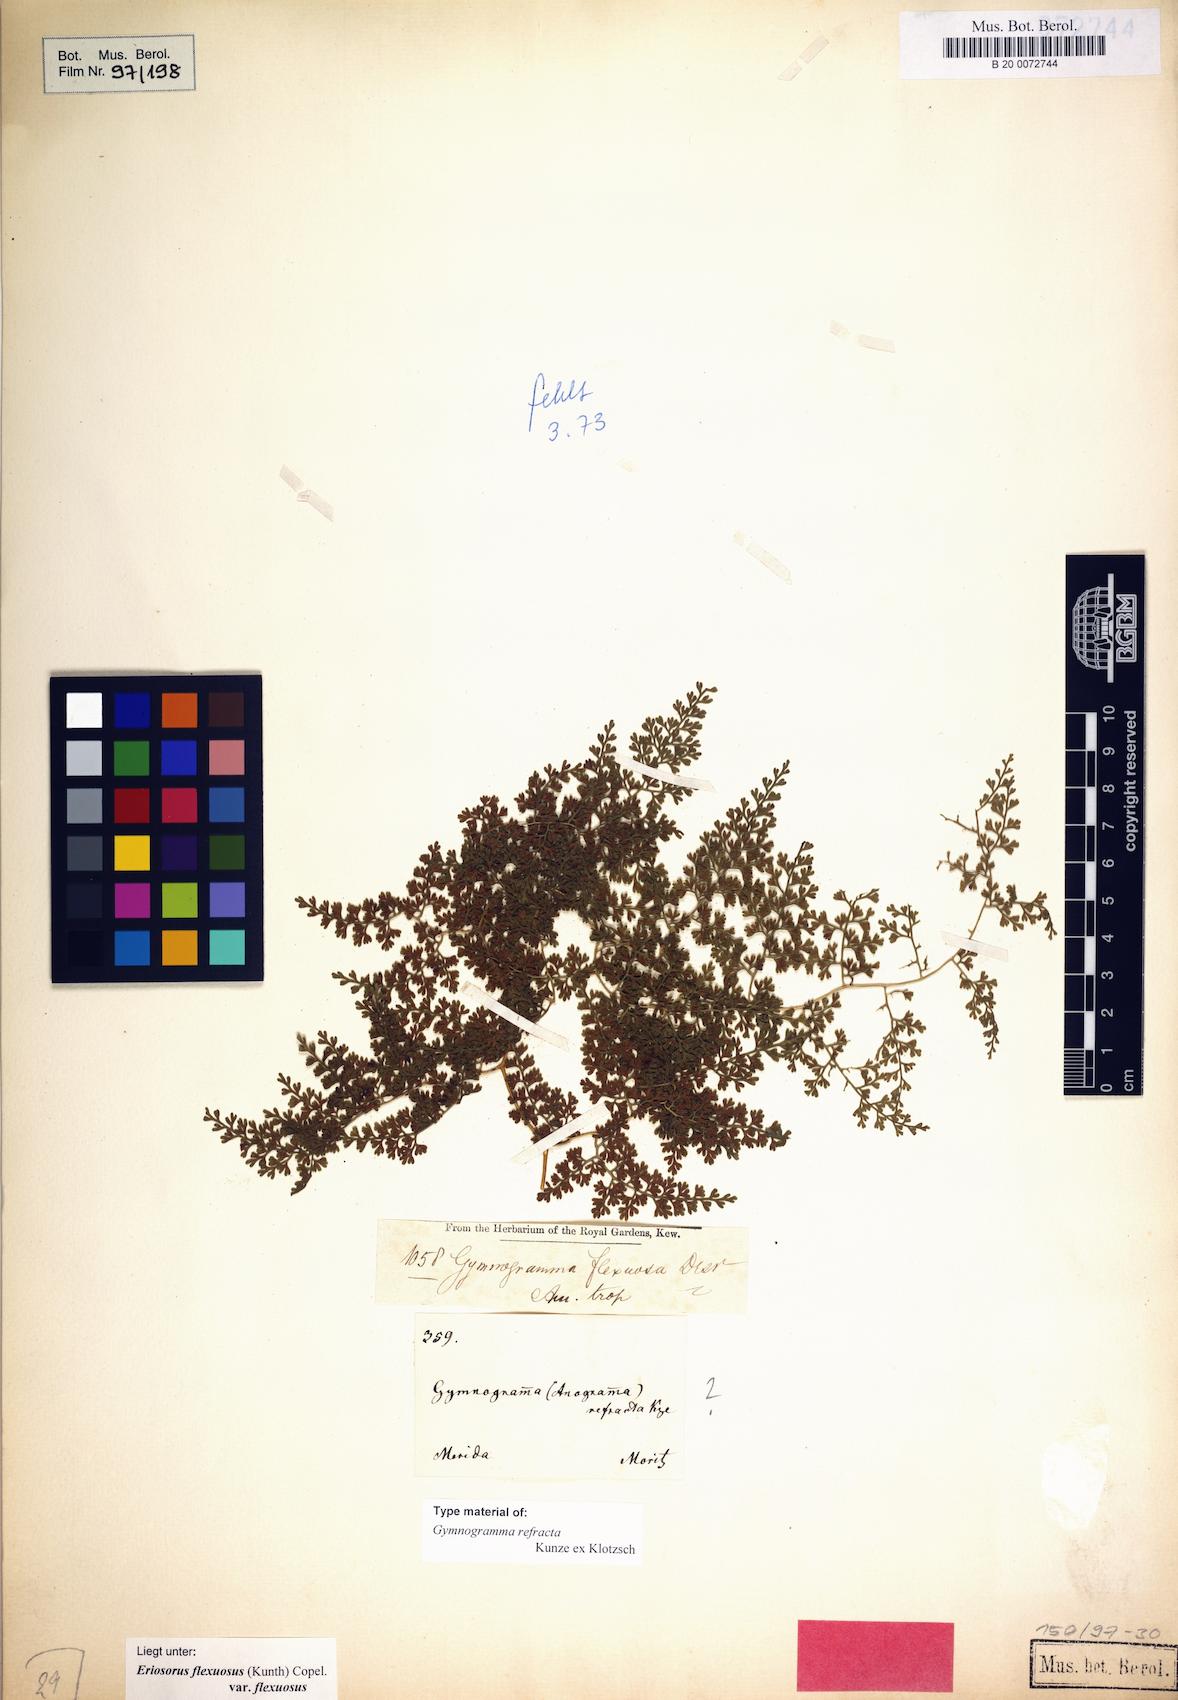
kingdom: Plantae
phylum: Tracheophyta
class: Polypodiopsida
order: Polypodiales
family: Pteridaceae
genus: Jamesonia
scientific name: Jamesonia flexuosa
